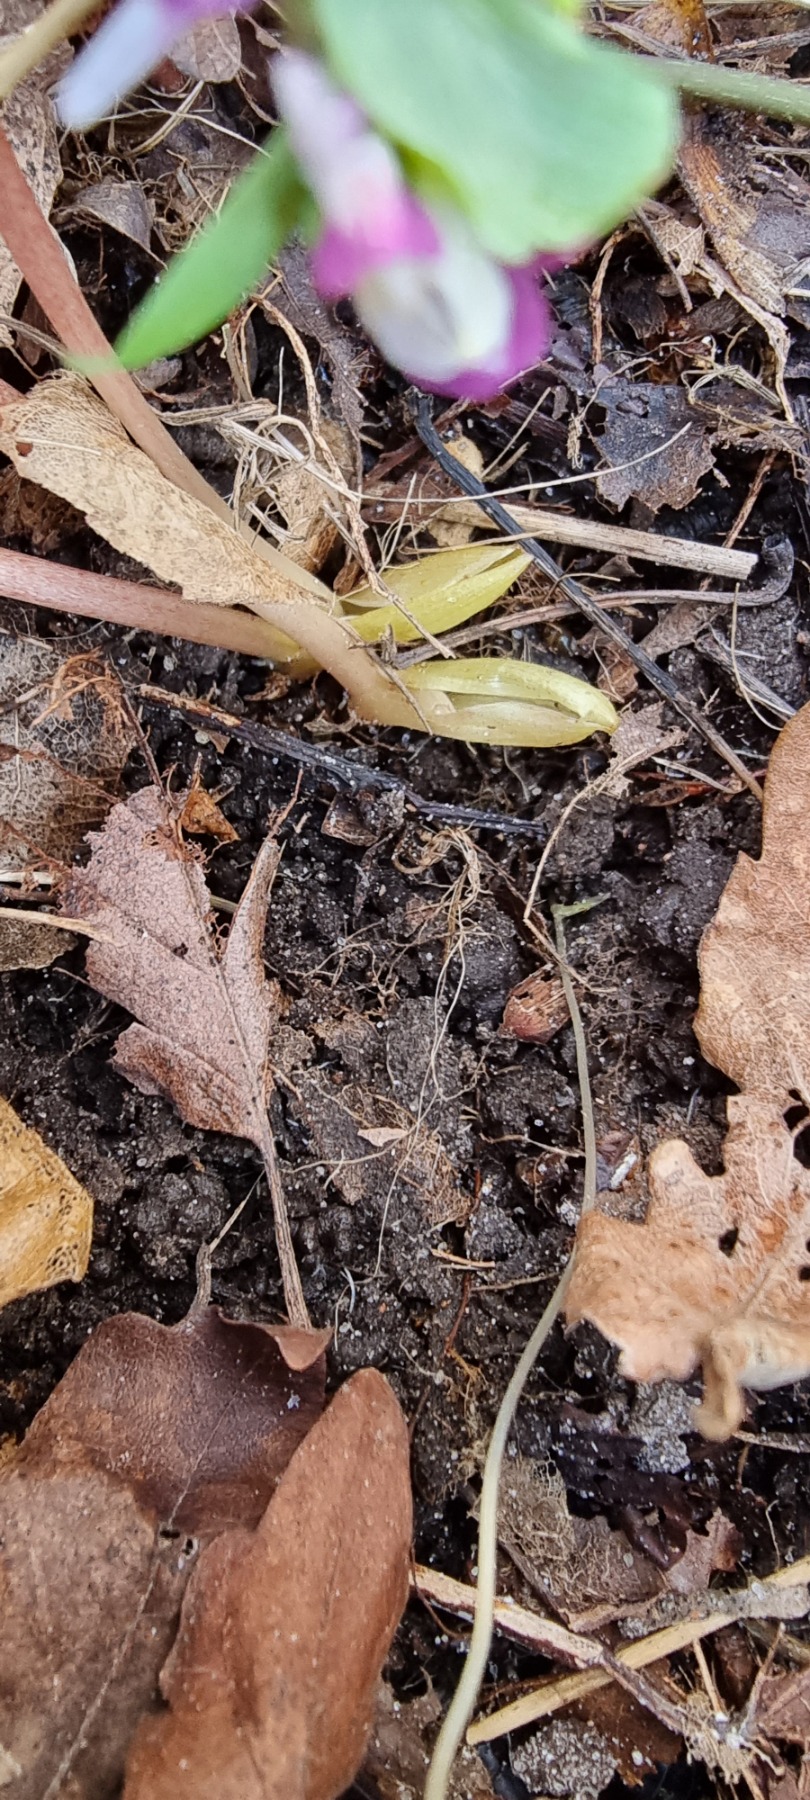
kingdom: Plantae
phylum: Tracheophyta
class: Magnoliopsida
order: Ranunculales
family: Papaveraceae
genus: Corydalis
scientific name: Corydalis pumila
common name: Finger-lærkespore
